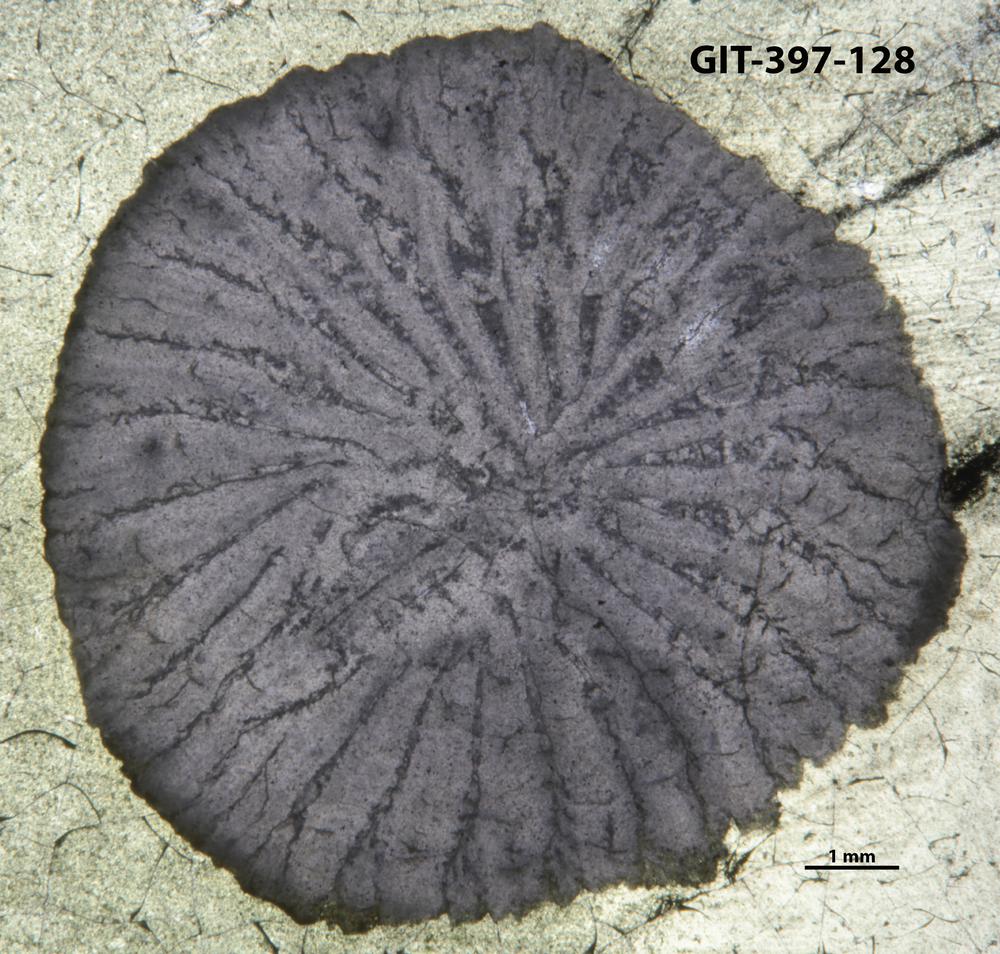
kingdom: Animalia
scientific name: Animalia
